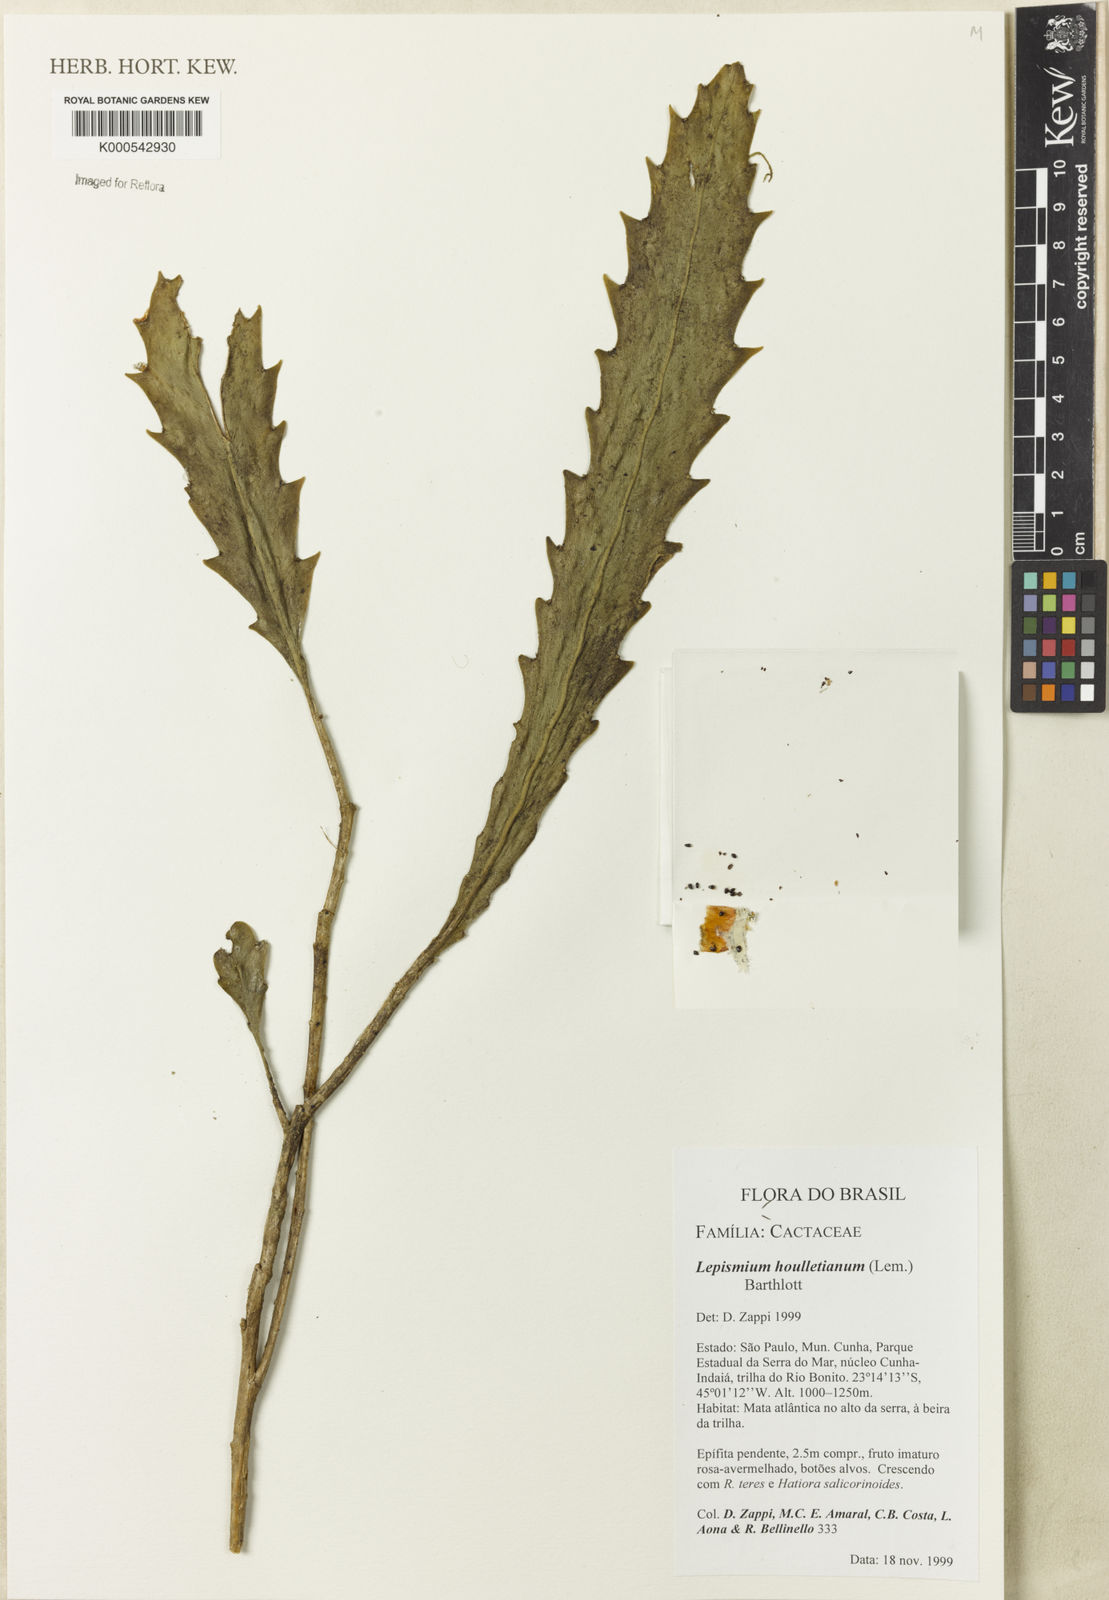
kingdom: Plantae
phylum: Tracheophyta
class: Magnoliopsida
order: Caryophyllales
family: Cactaceae
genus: Lepismium
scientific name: Lepismium houlletianum
